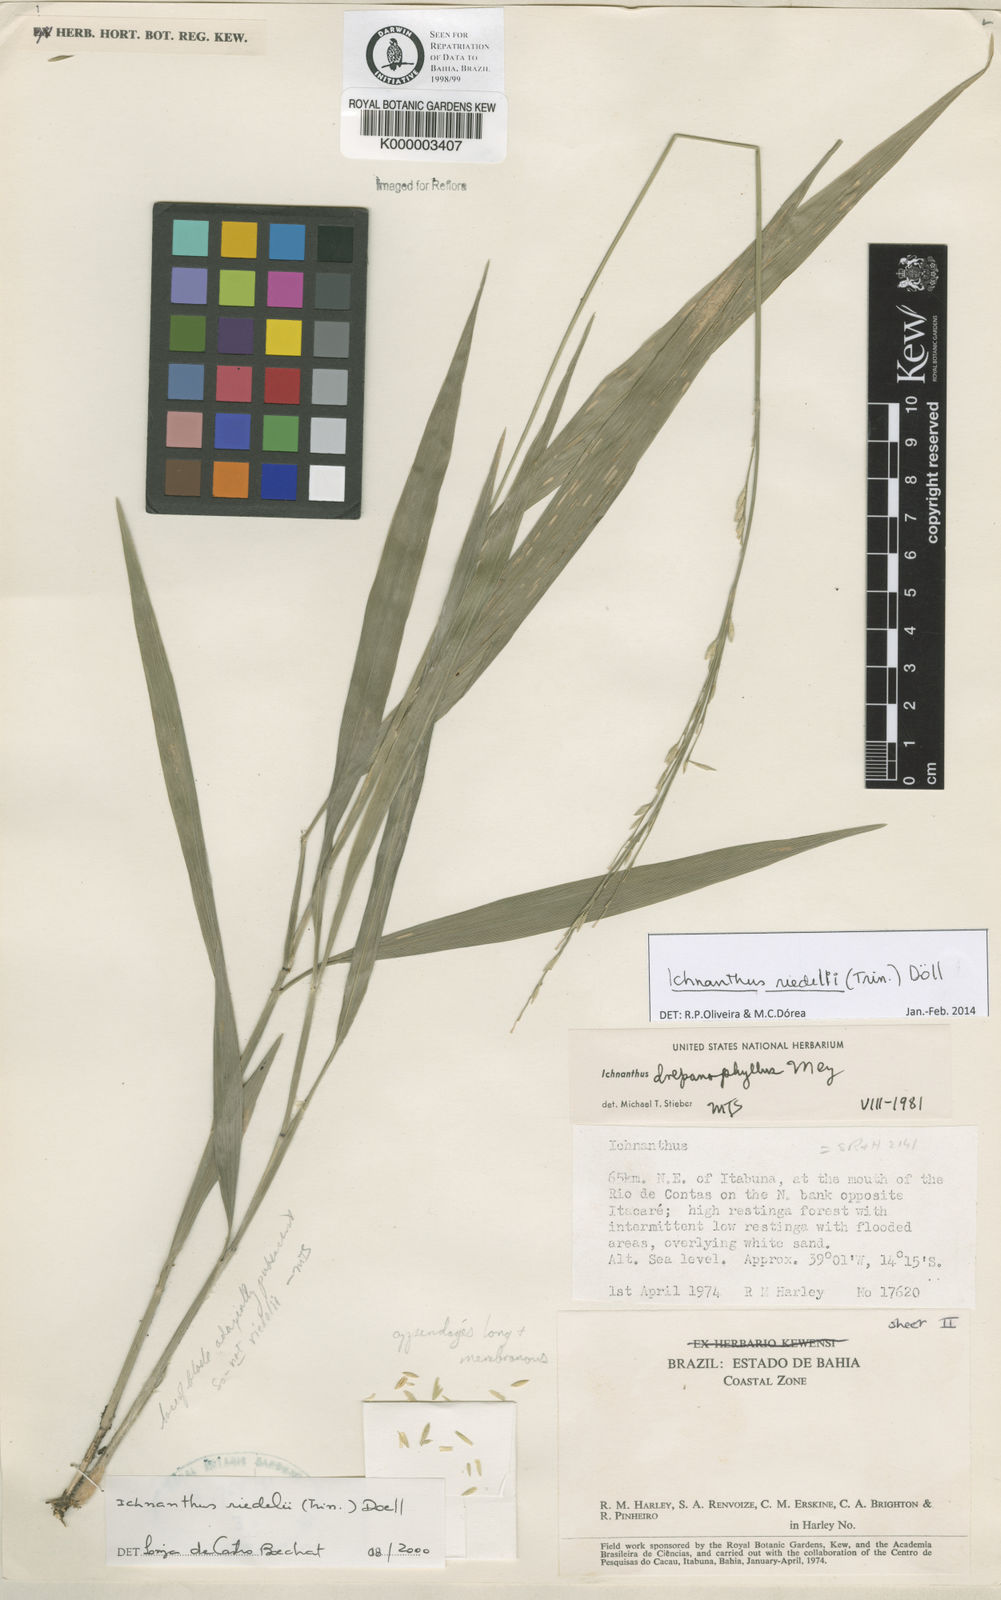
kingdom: Plantae
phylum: Tracheophyta
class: Liliopsida
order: Poales
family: Poaceae
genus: Ichnanthus
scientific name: Ichnanthus
